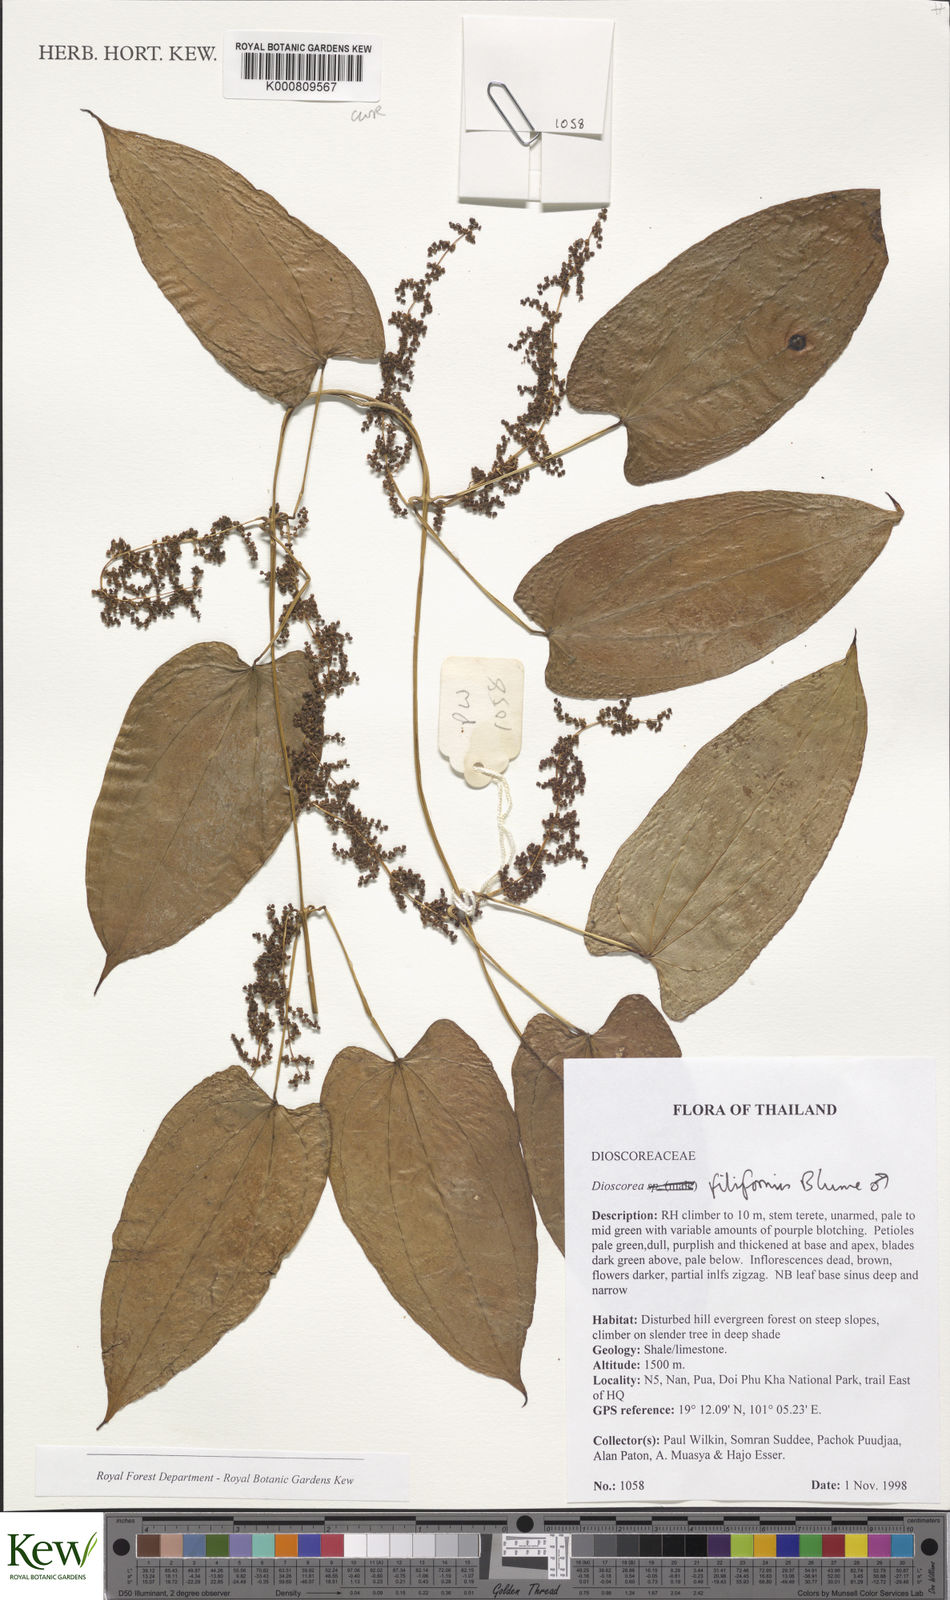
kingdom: Plantae
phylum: Tracheophyta
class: Liliopsida
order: Dioscoreales
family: Dioscoreaceae
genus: Dioscorea
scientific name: Dioscorea filiformis
